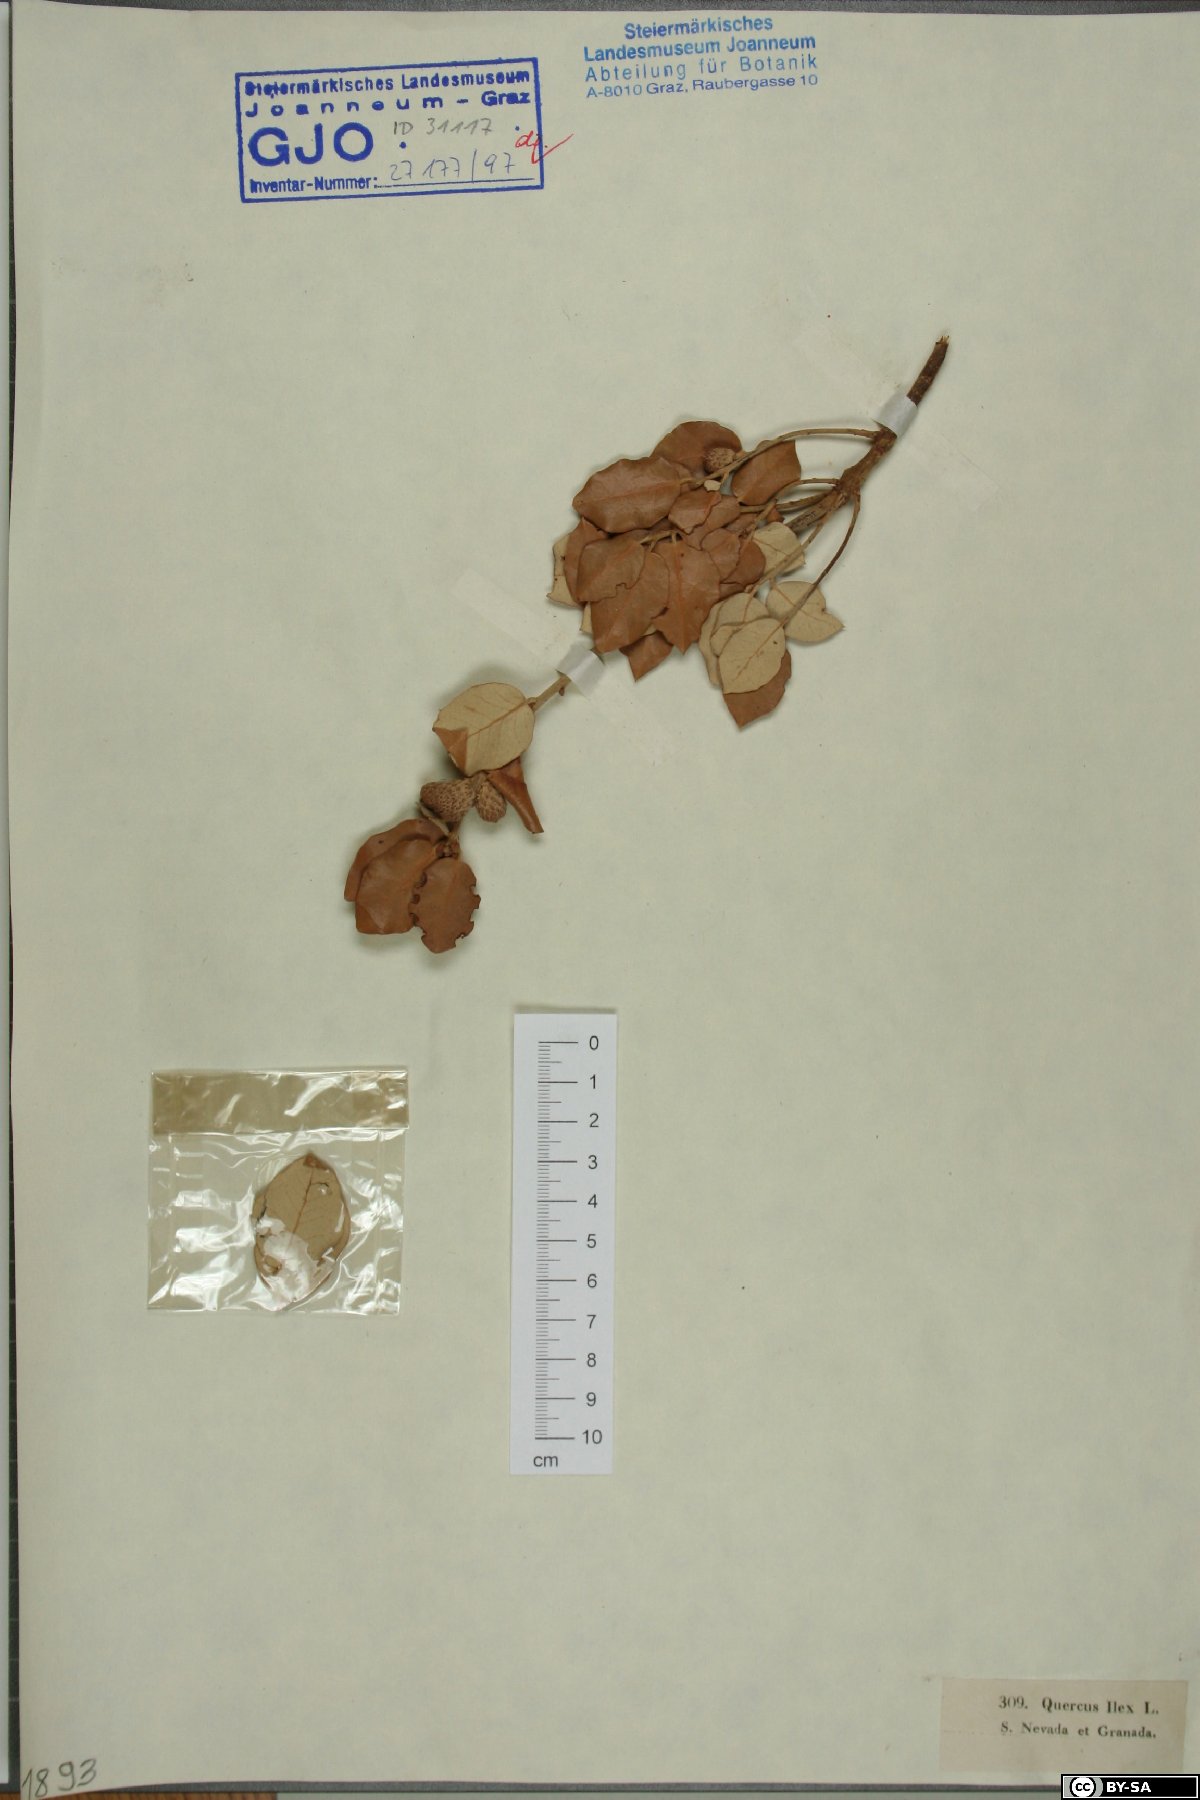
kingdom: Plantae
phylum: Tracheophyta
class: Magnoliopsida
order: Fagales
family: Fagaceae
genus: Quercus
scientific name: Quercus ilex
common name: Evergreen oak
